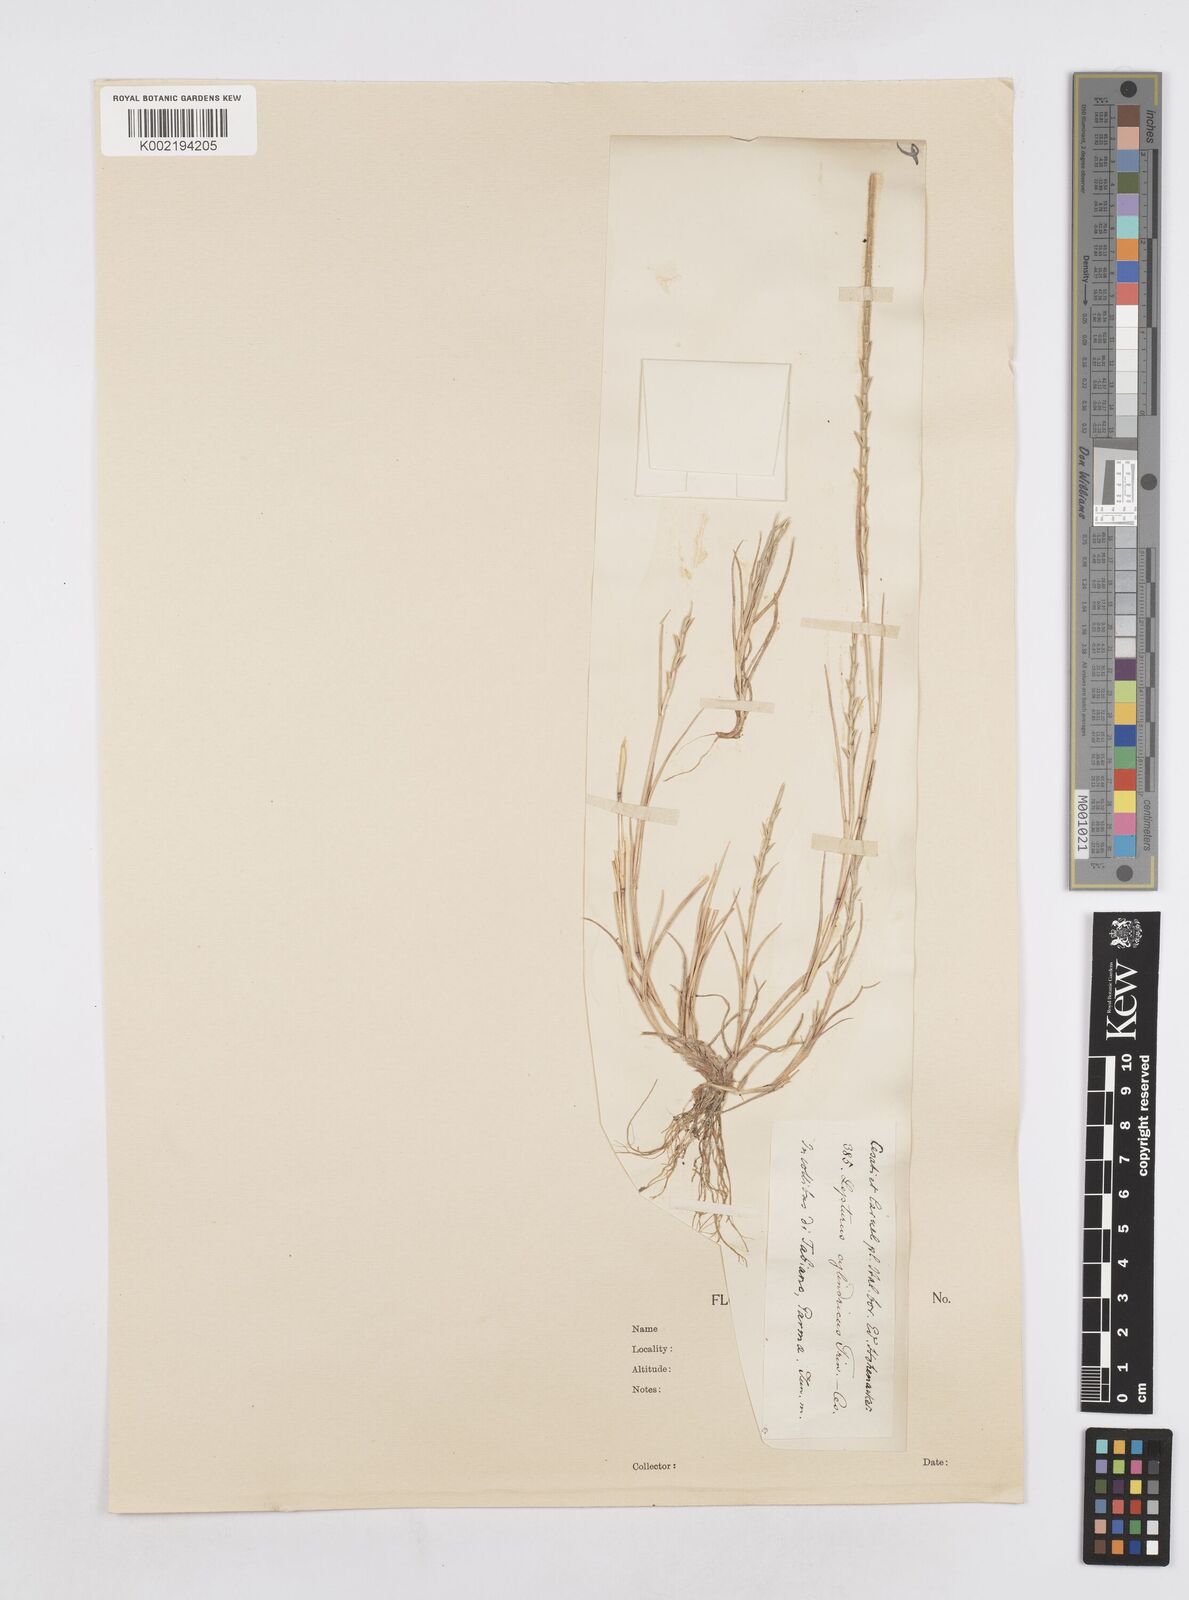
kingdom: Plantae
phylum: Tracheophyta
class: Liliopsida
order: Poales
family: Poaceae
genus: Parapholis
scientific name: Parapholis cylindrica
